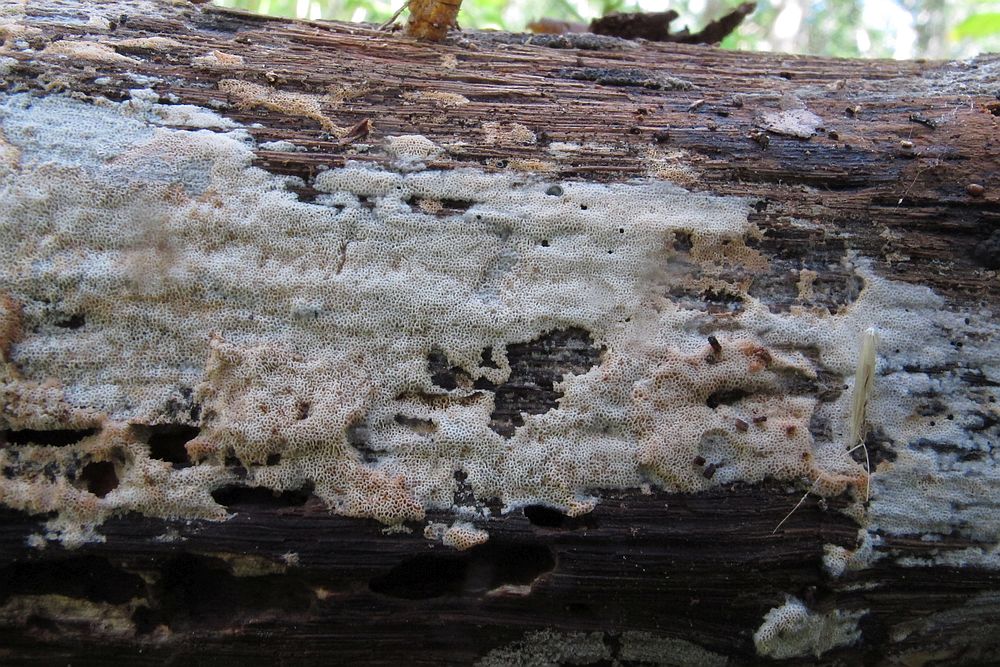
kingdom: Fungi
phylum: Basidiomycota
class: Agaricomycetes
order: Polyporales
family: Irpicaceae
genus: Ceriporia
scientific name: Ceriporia viridans
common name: foranderlig voksporesvamp
